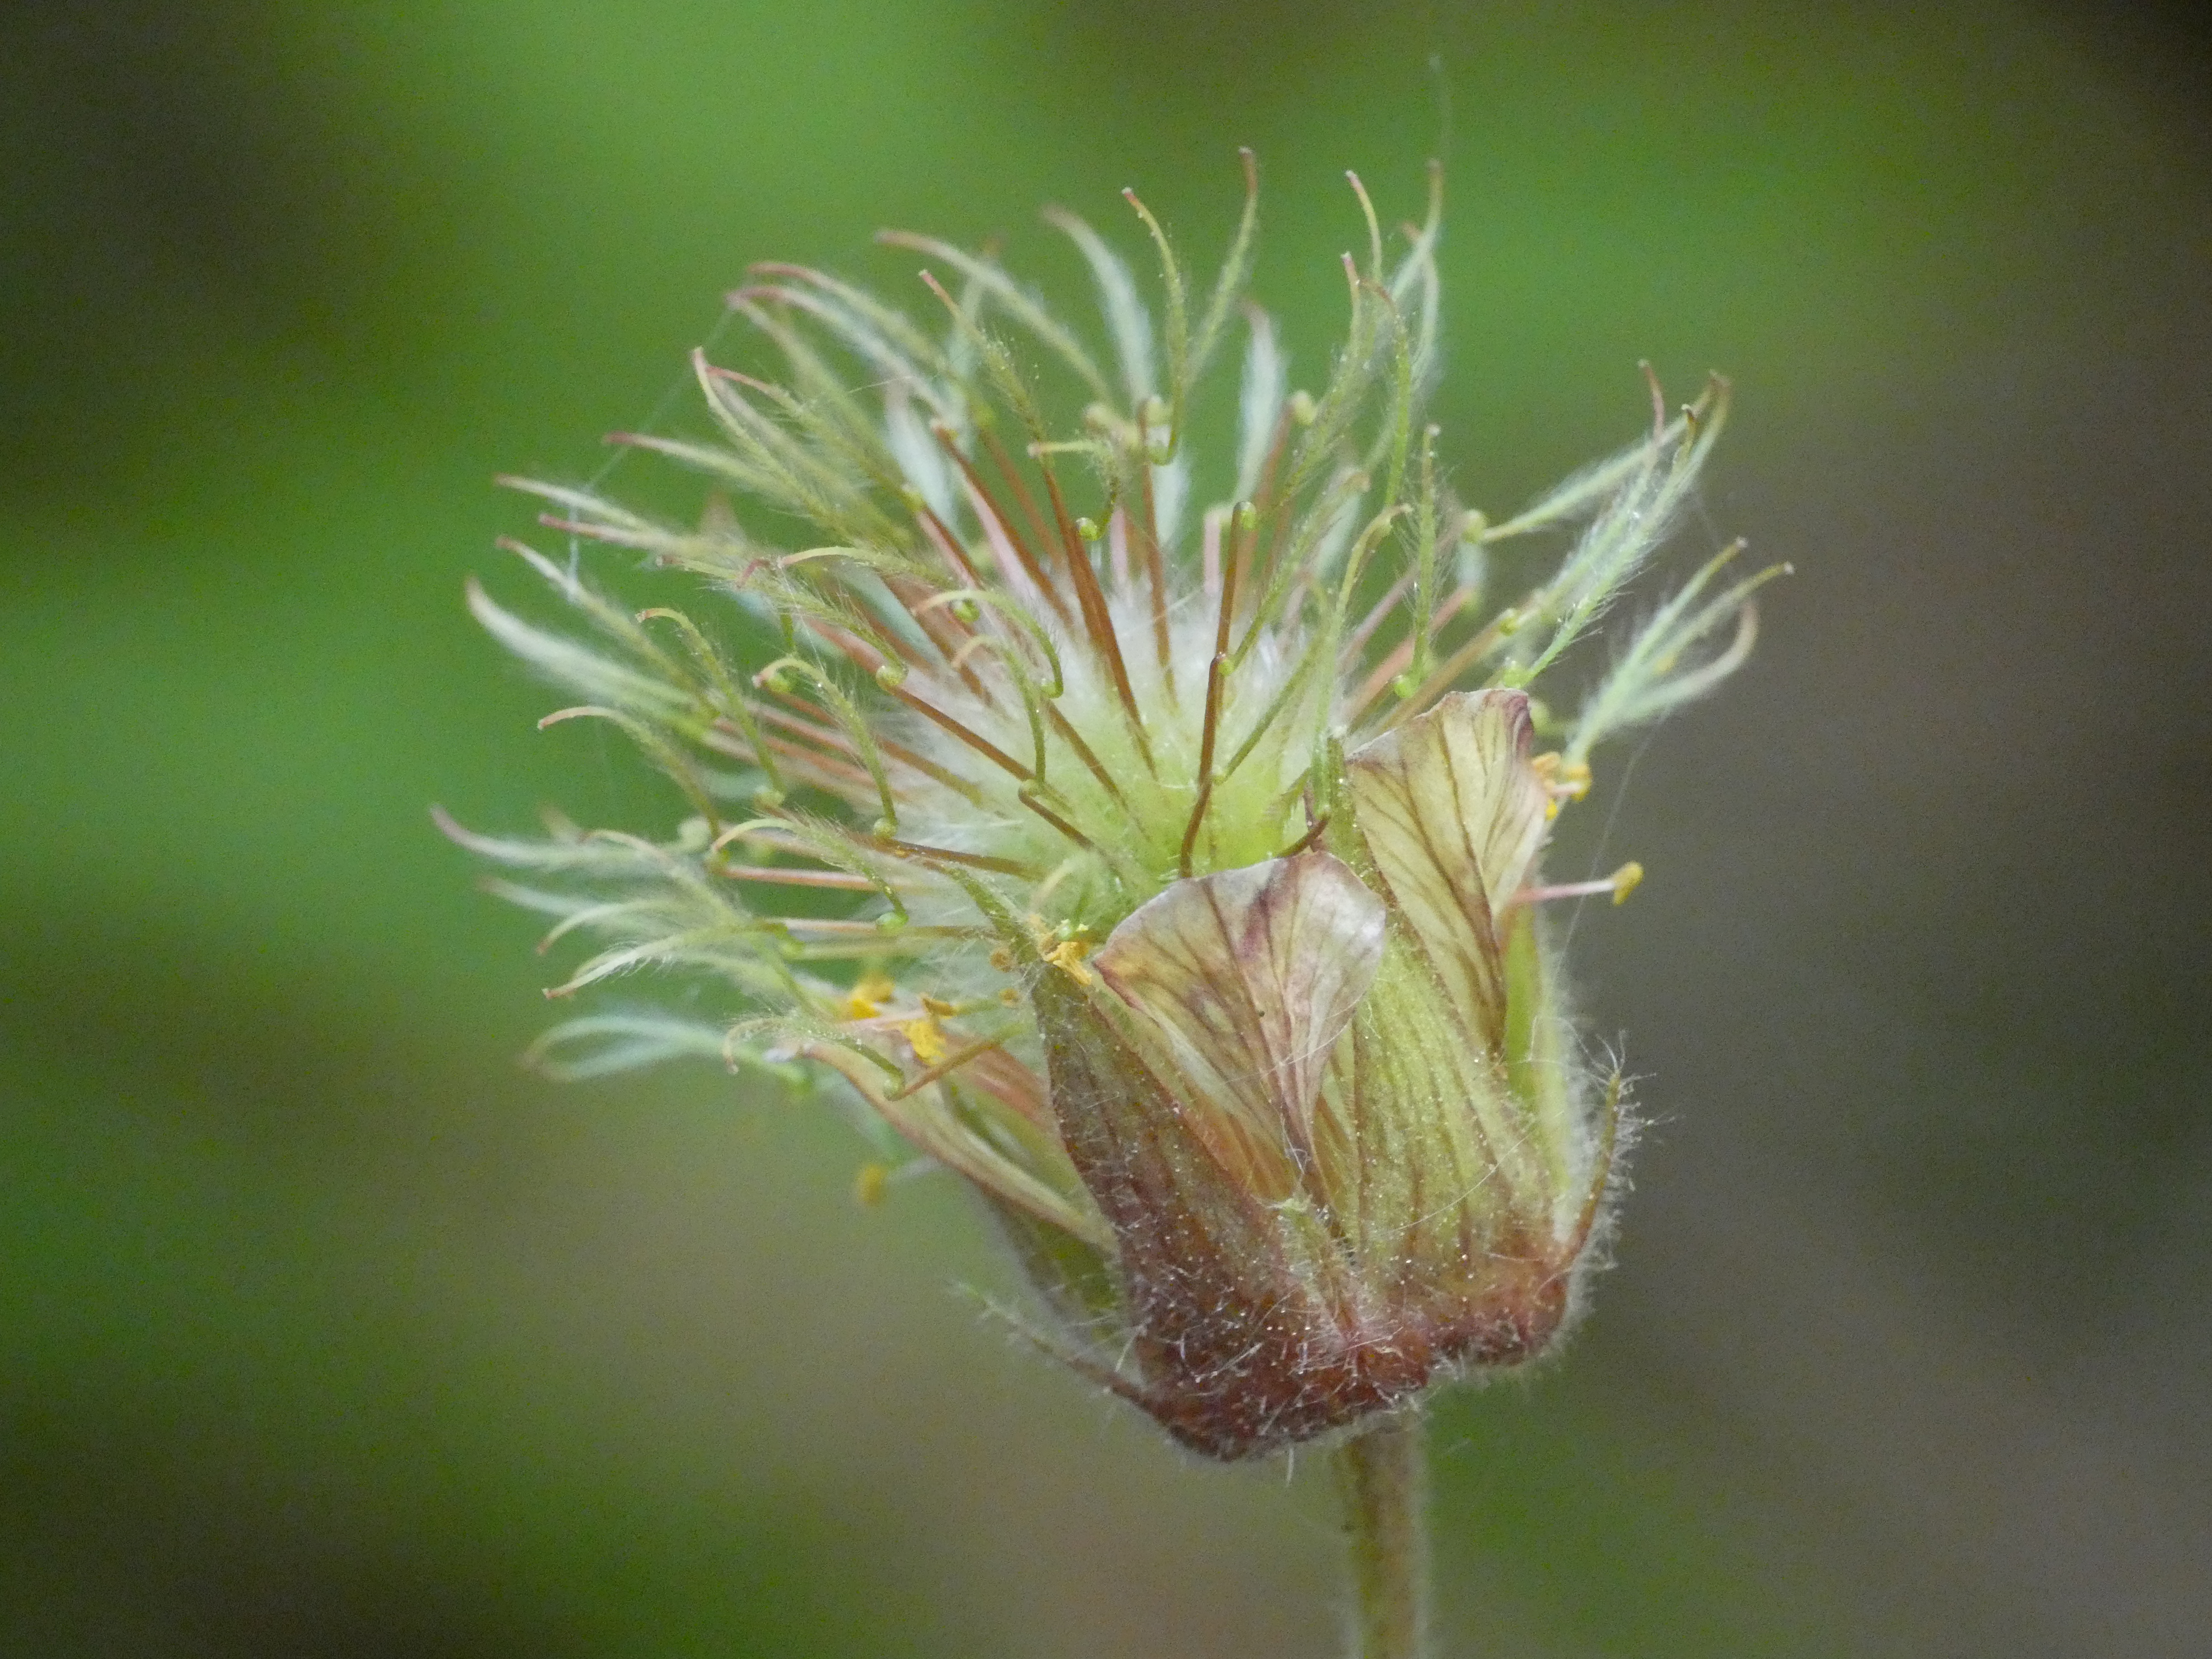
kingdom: Plantae
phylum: Tracheophyta
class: Magnoliopsida
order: Rosales
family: Rosaceae
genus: Geum
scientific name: Geum rivale
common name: Eng-nellikerod
